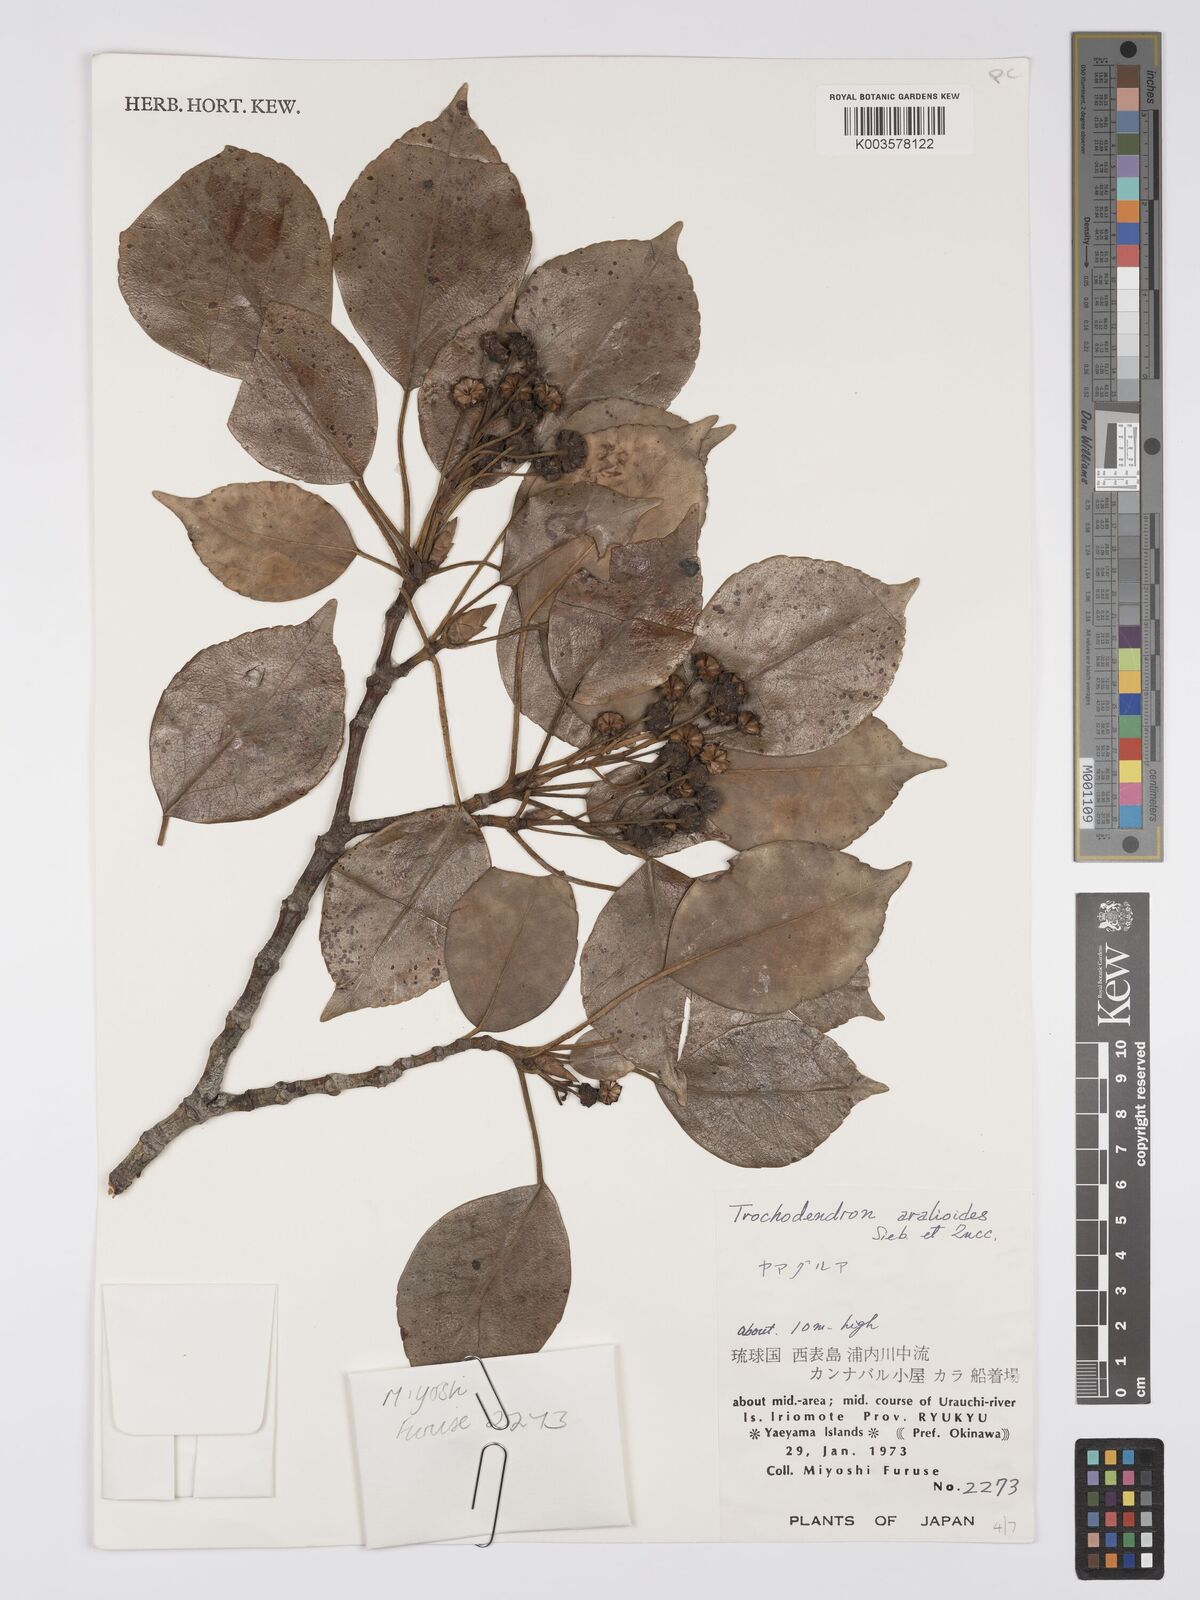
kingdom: Plantae
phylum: Tracheophyta
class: Magnoliopsida
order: Trochodendrales
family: Trochodendraceae
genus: Trochodendron
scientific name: Trochodendron aralioides
